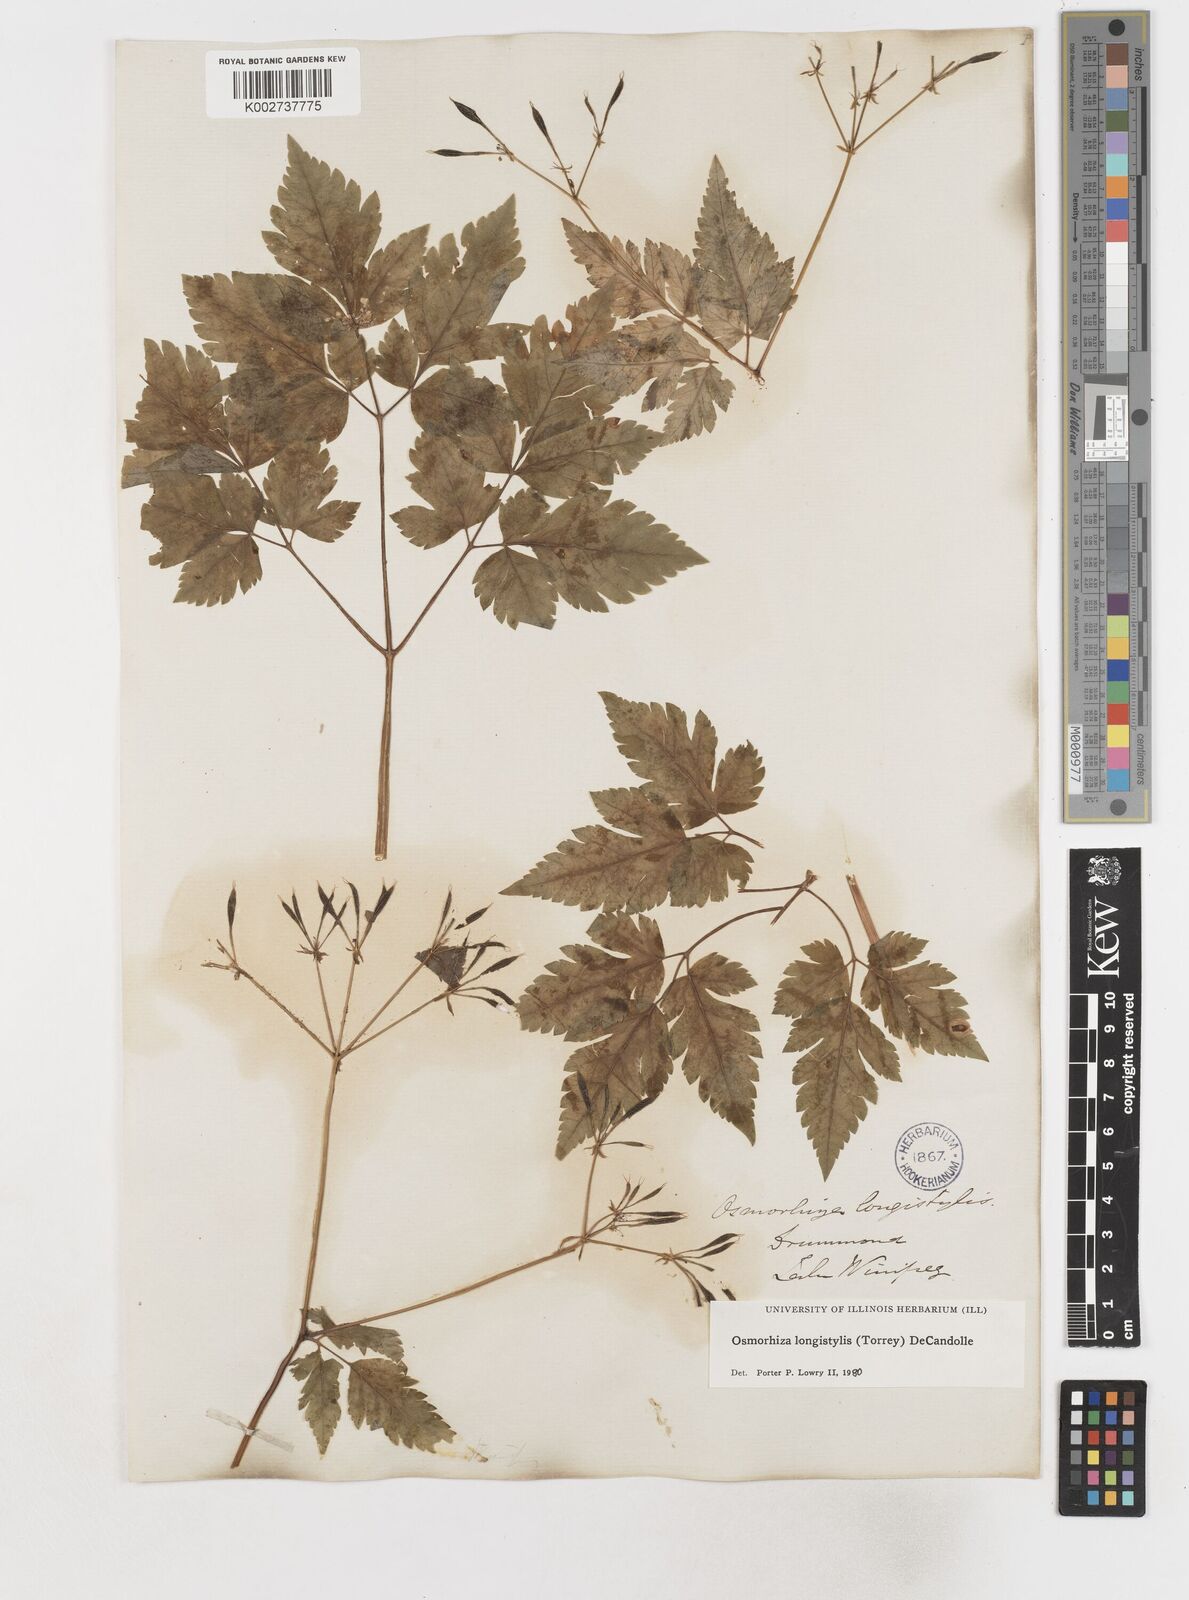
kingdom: Plantae
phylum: Tracheophyta
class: Magnoliopsida
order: Apiales
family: Apiaceae
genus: Osmorhiza
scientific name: Osmorhiza longistylis
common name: Smooth sweet cicely
